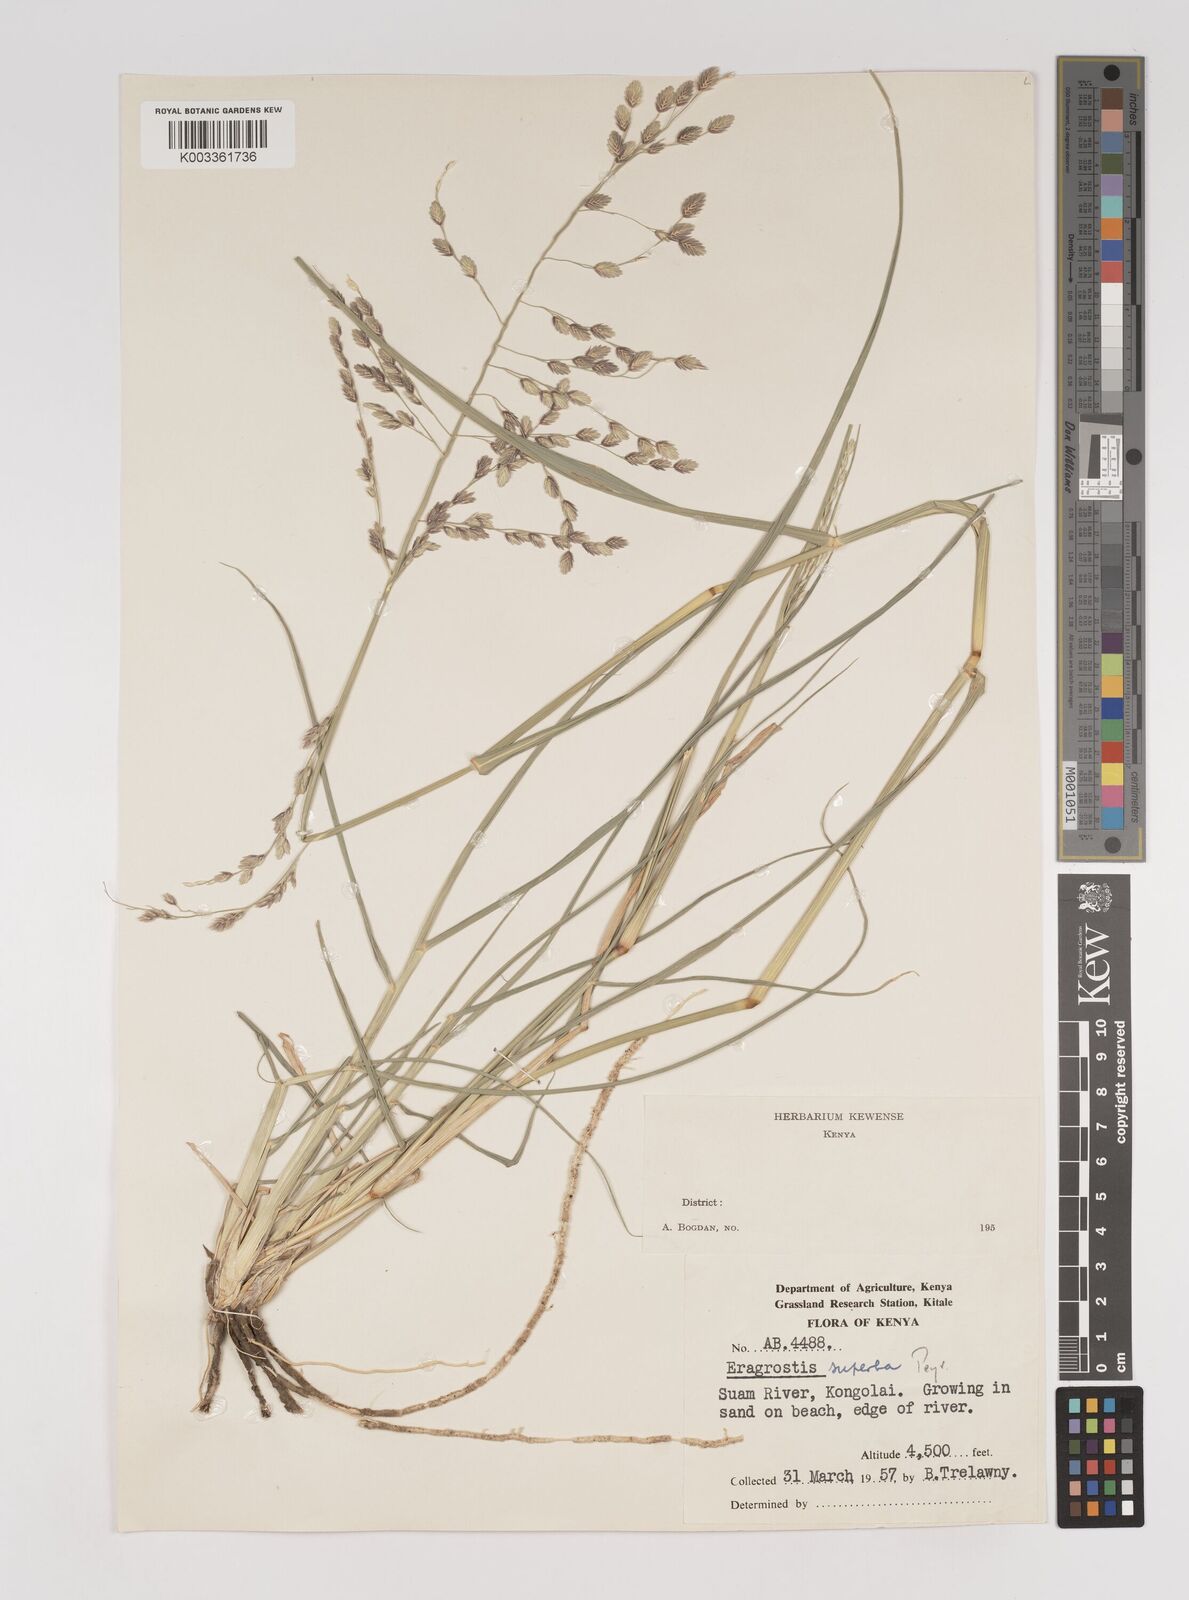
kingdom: Plantae
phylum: Tracheophyta
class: Liliopsida
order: Poales
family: Poaceae
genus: Eragrostis
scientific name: Eragrostis superba
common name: Wilman lovegrass
